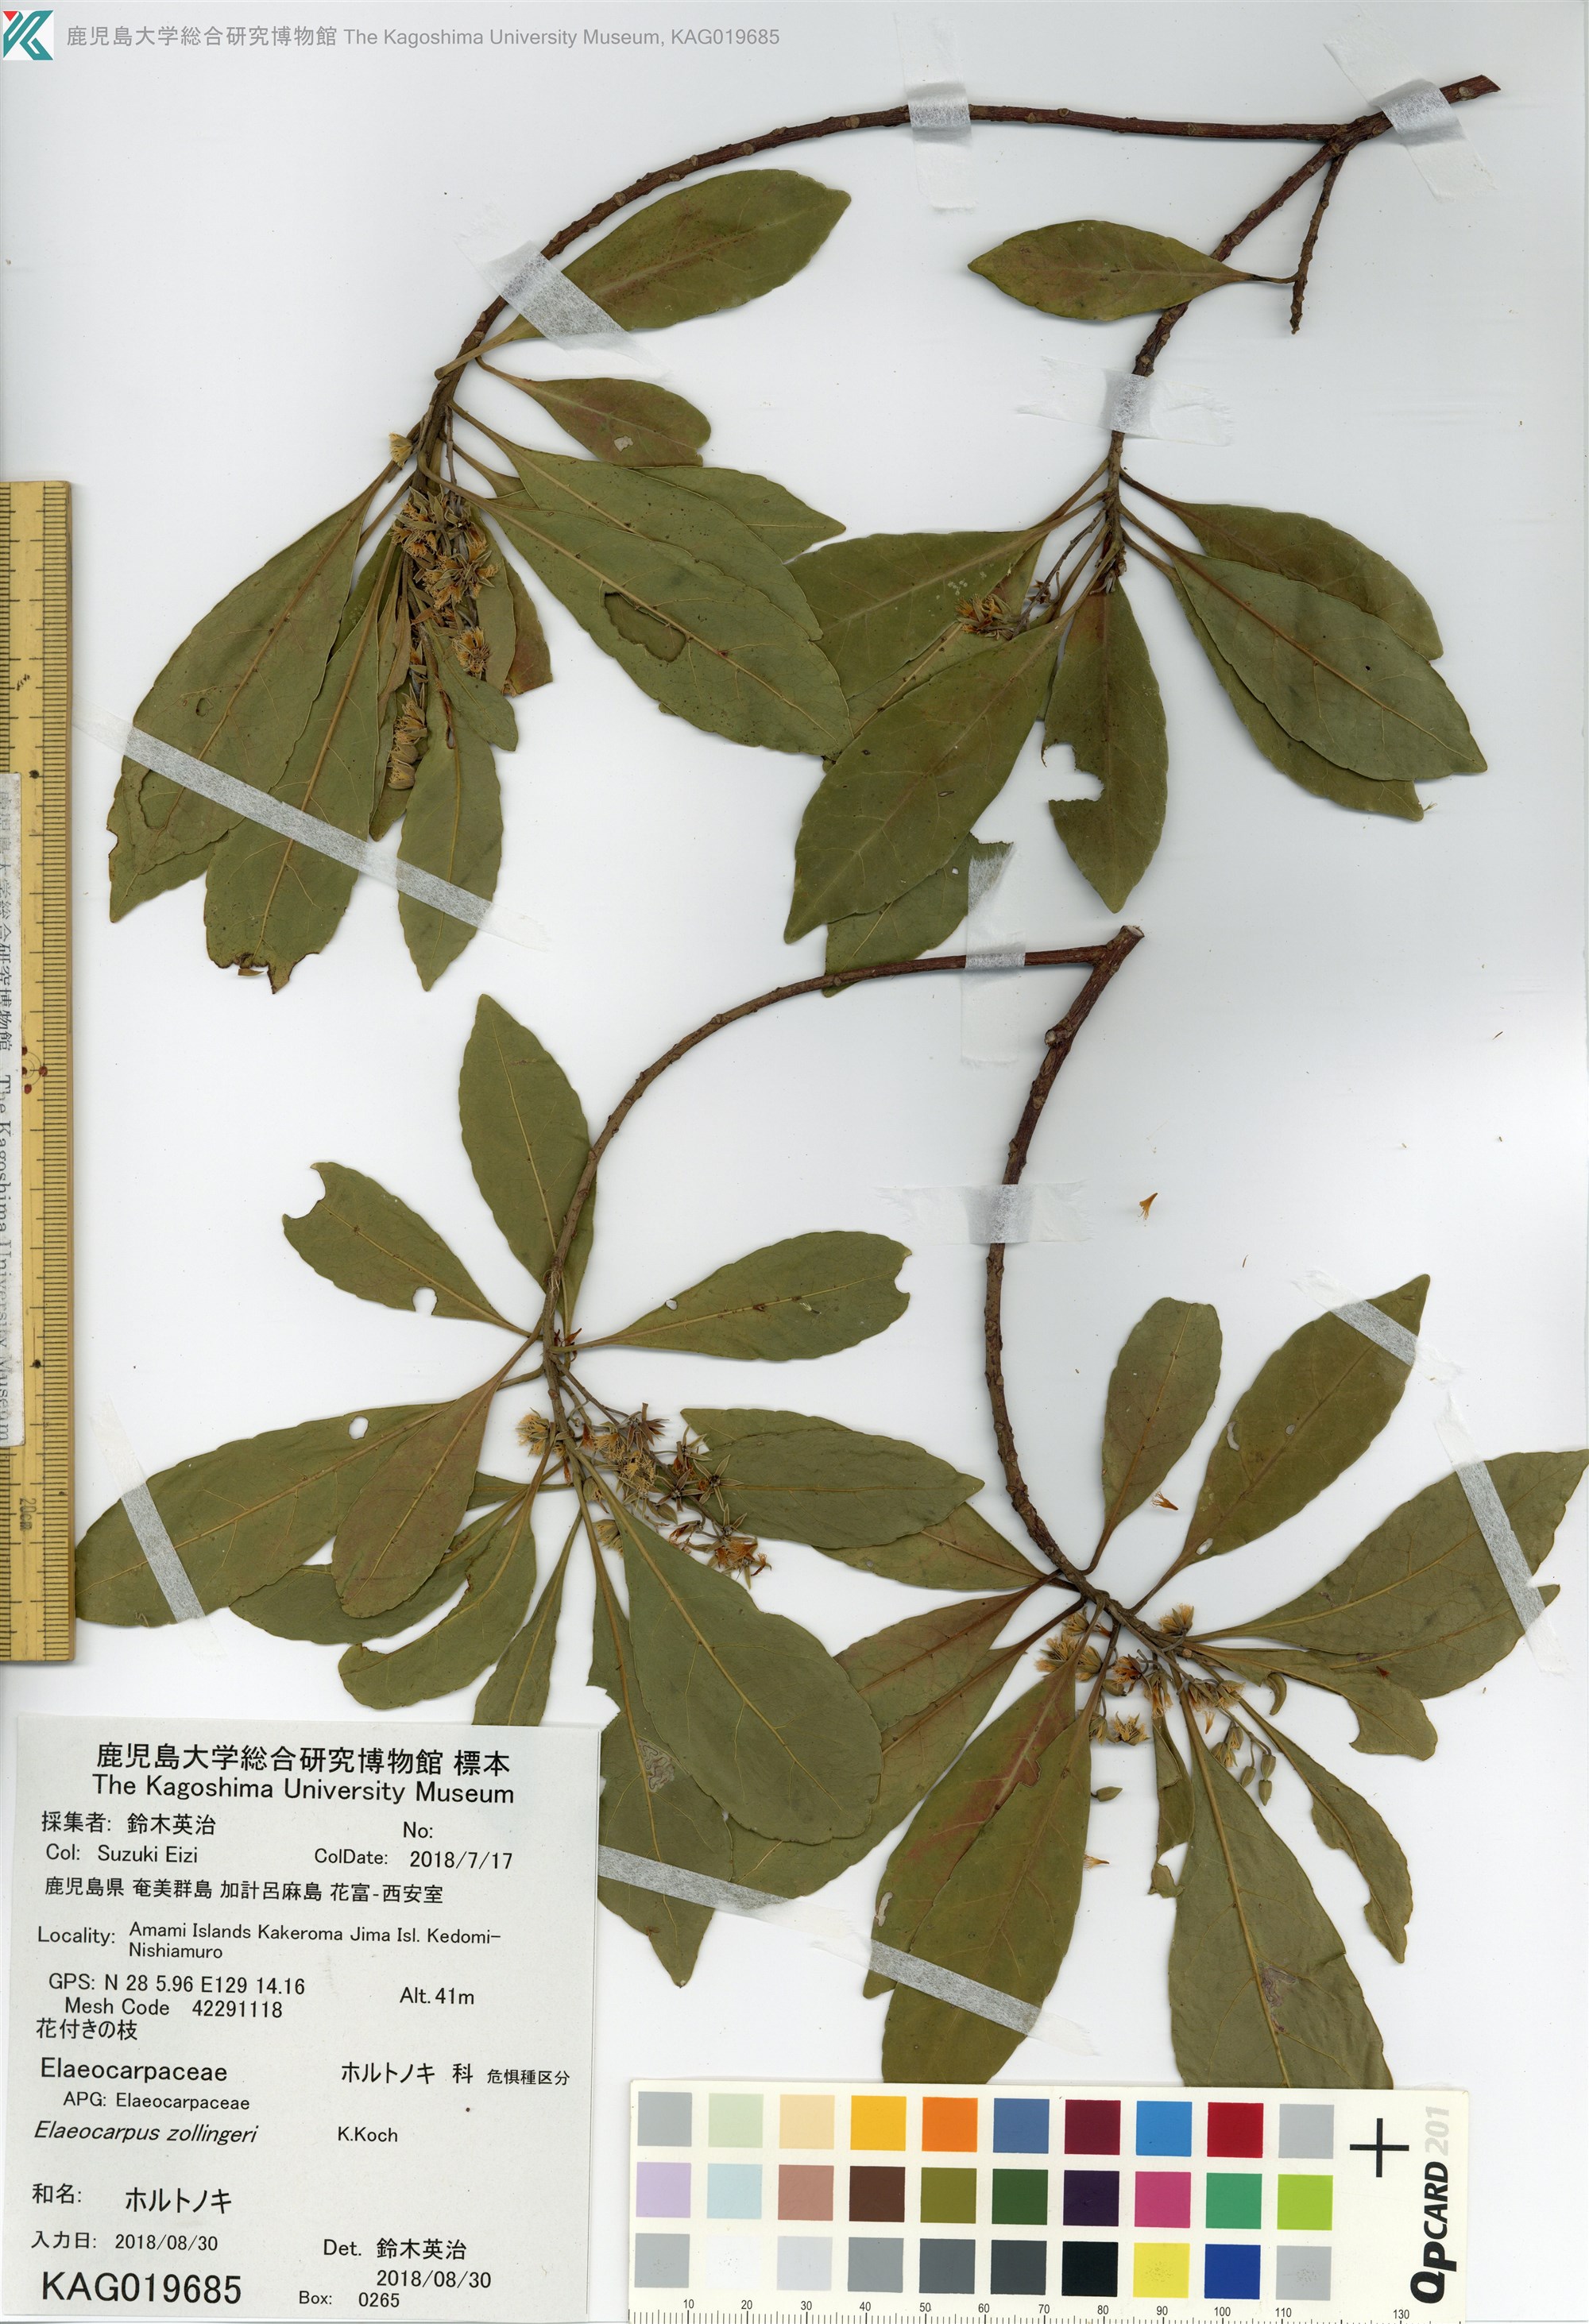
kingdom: Plantae
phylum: Tracheophyta
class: Magnoliopsida
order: Oxalidales
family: Elaeocarpaceae
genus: Elaeocarpus
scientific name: Elaeocarpus decipiens
